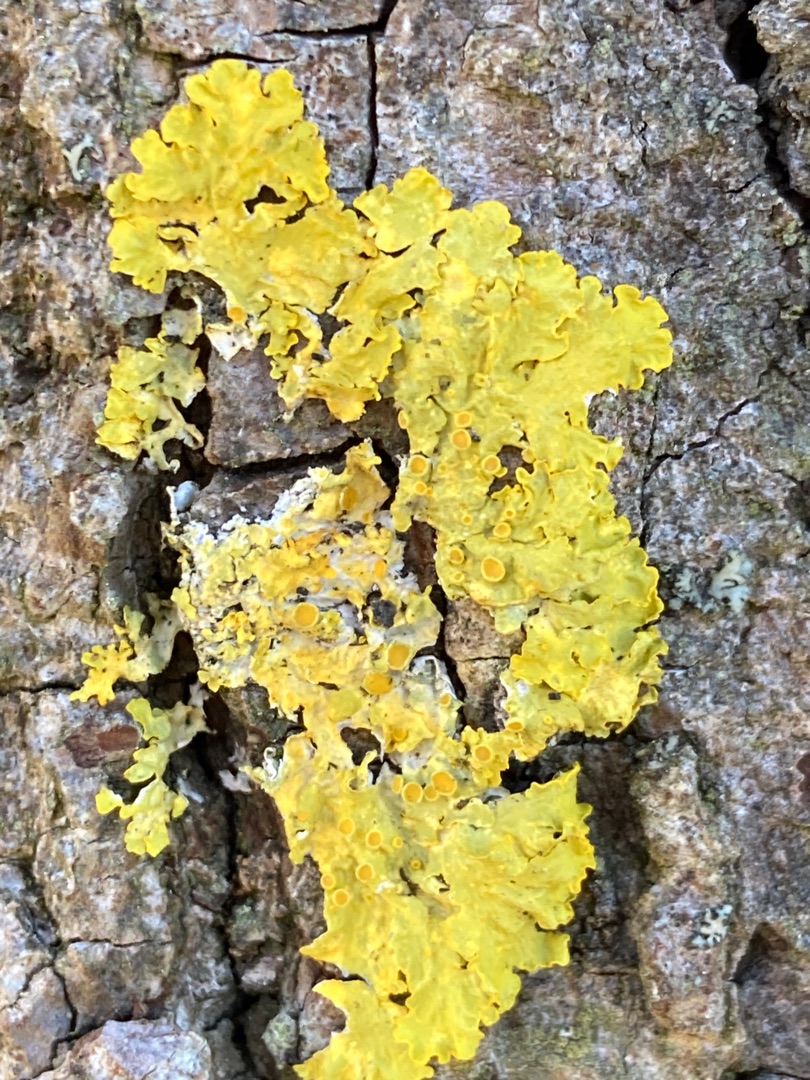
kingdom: Fungi
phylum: Ascomycota
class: Lecanoromycetes
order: Teloschistales
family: Teloschistaceae
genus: Xanthoria
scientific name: Xanthoria parietina
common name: Almindelig væggelav
